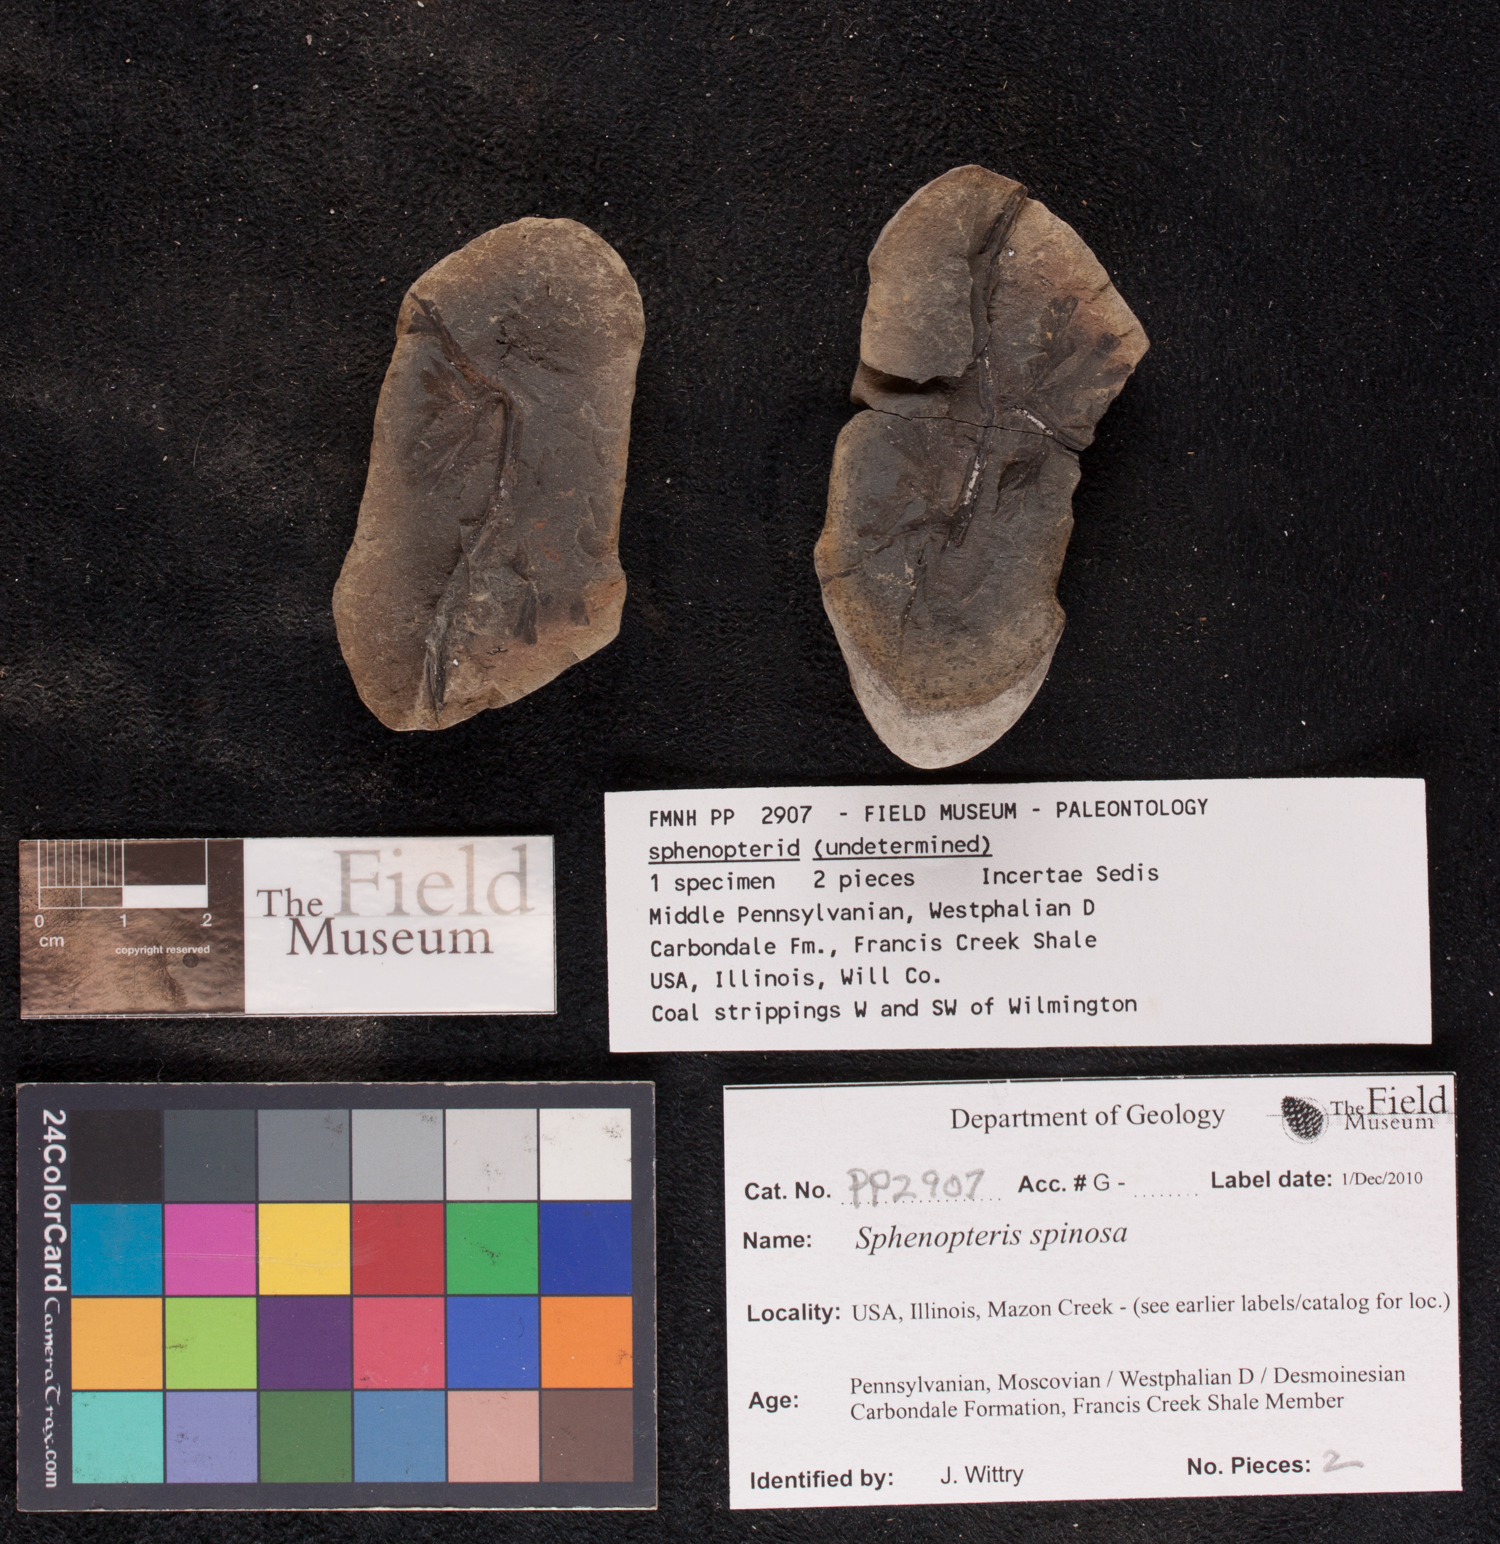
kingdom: Plantae
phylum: Tracheophyta
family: Lyginopteridaceae
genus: Sphenopteris
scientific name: Sphenopteris
